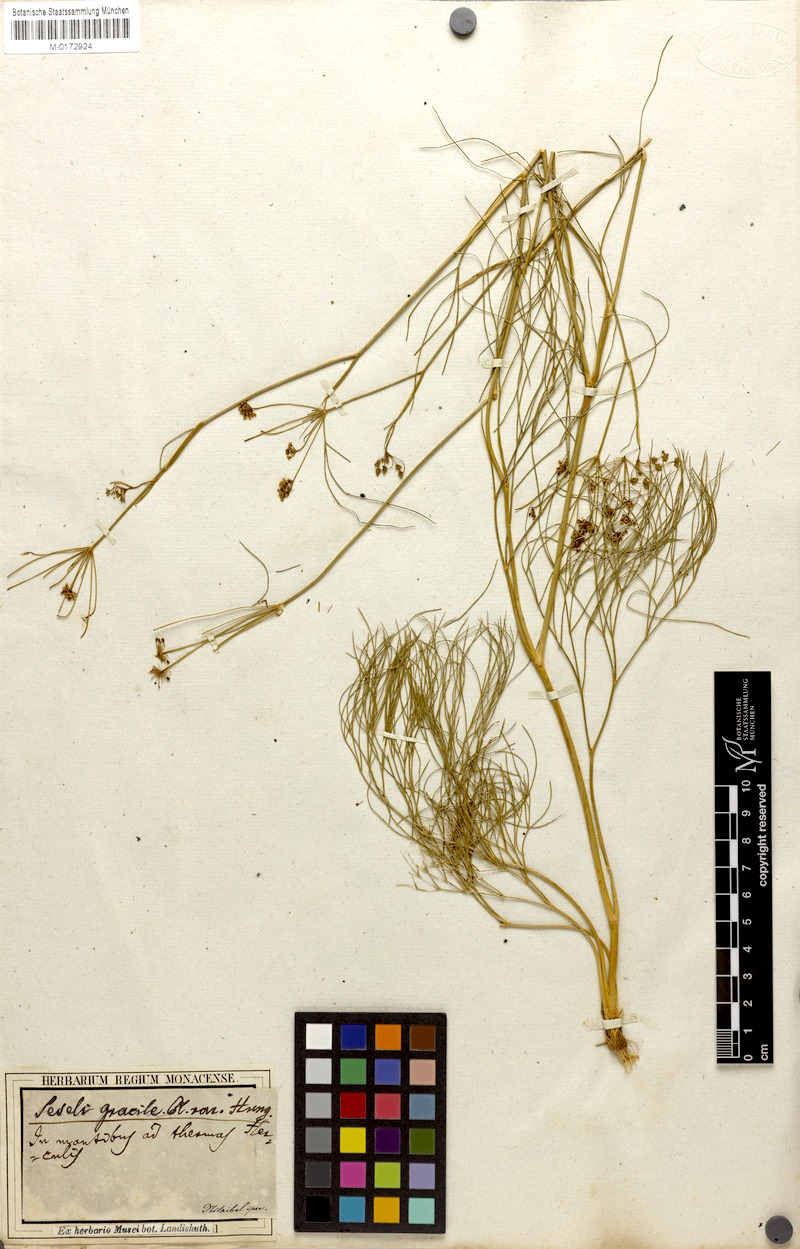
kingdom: Plantae
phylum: Tracheophyta
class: Magnoliopsida
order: Apiales
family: Apiaceae
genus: Seseli
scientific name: Seseli gracile
